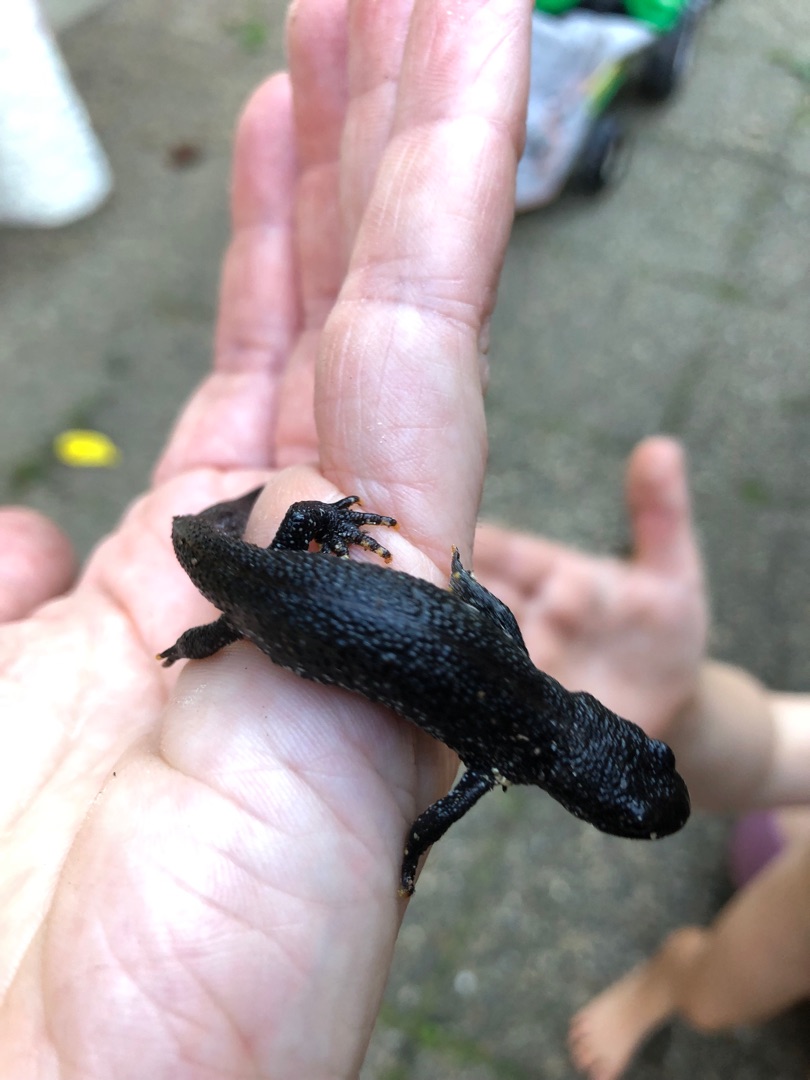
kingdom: Animalia
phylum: Chordata
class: Amphibia
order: Caudata
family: Salamandridae
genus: Triturus
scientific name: Triturus cristatus
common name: Stor vandsalamander
